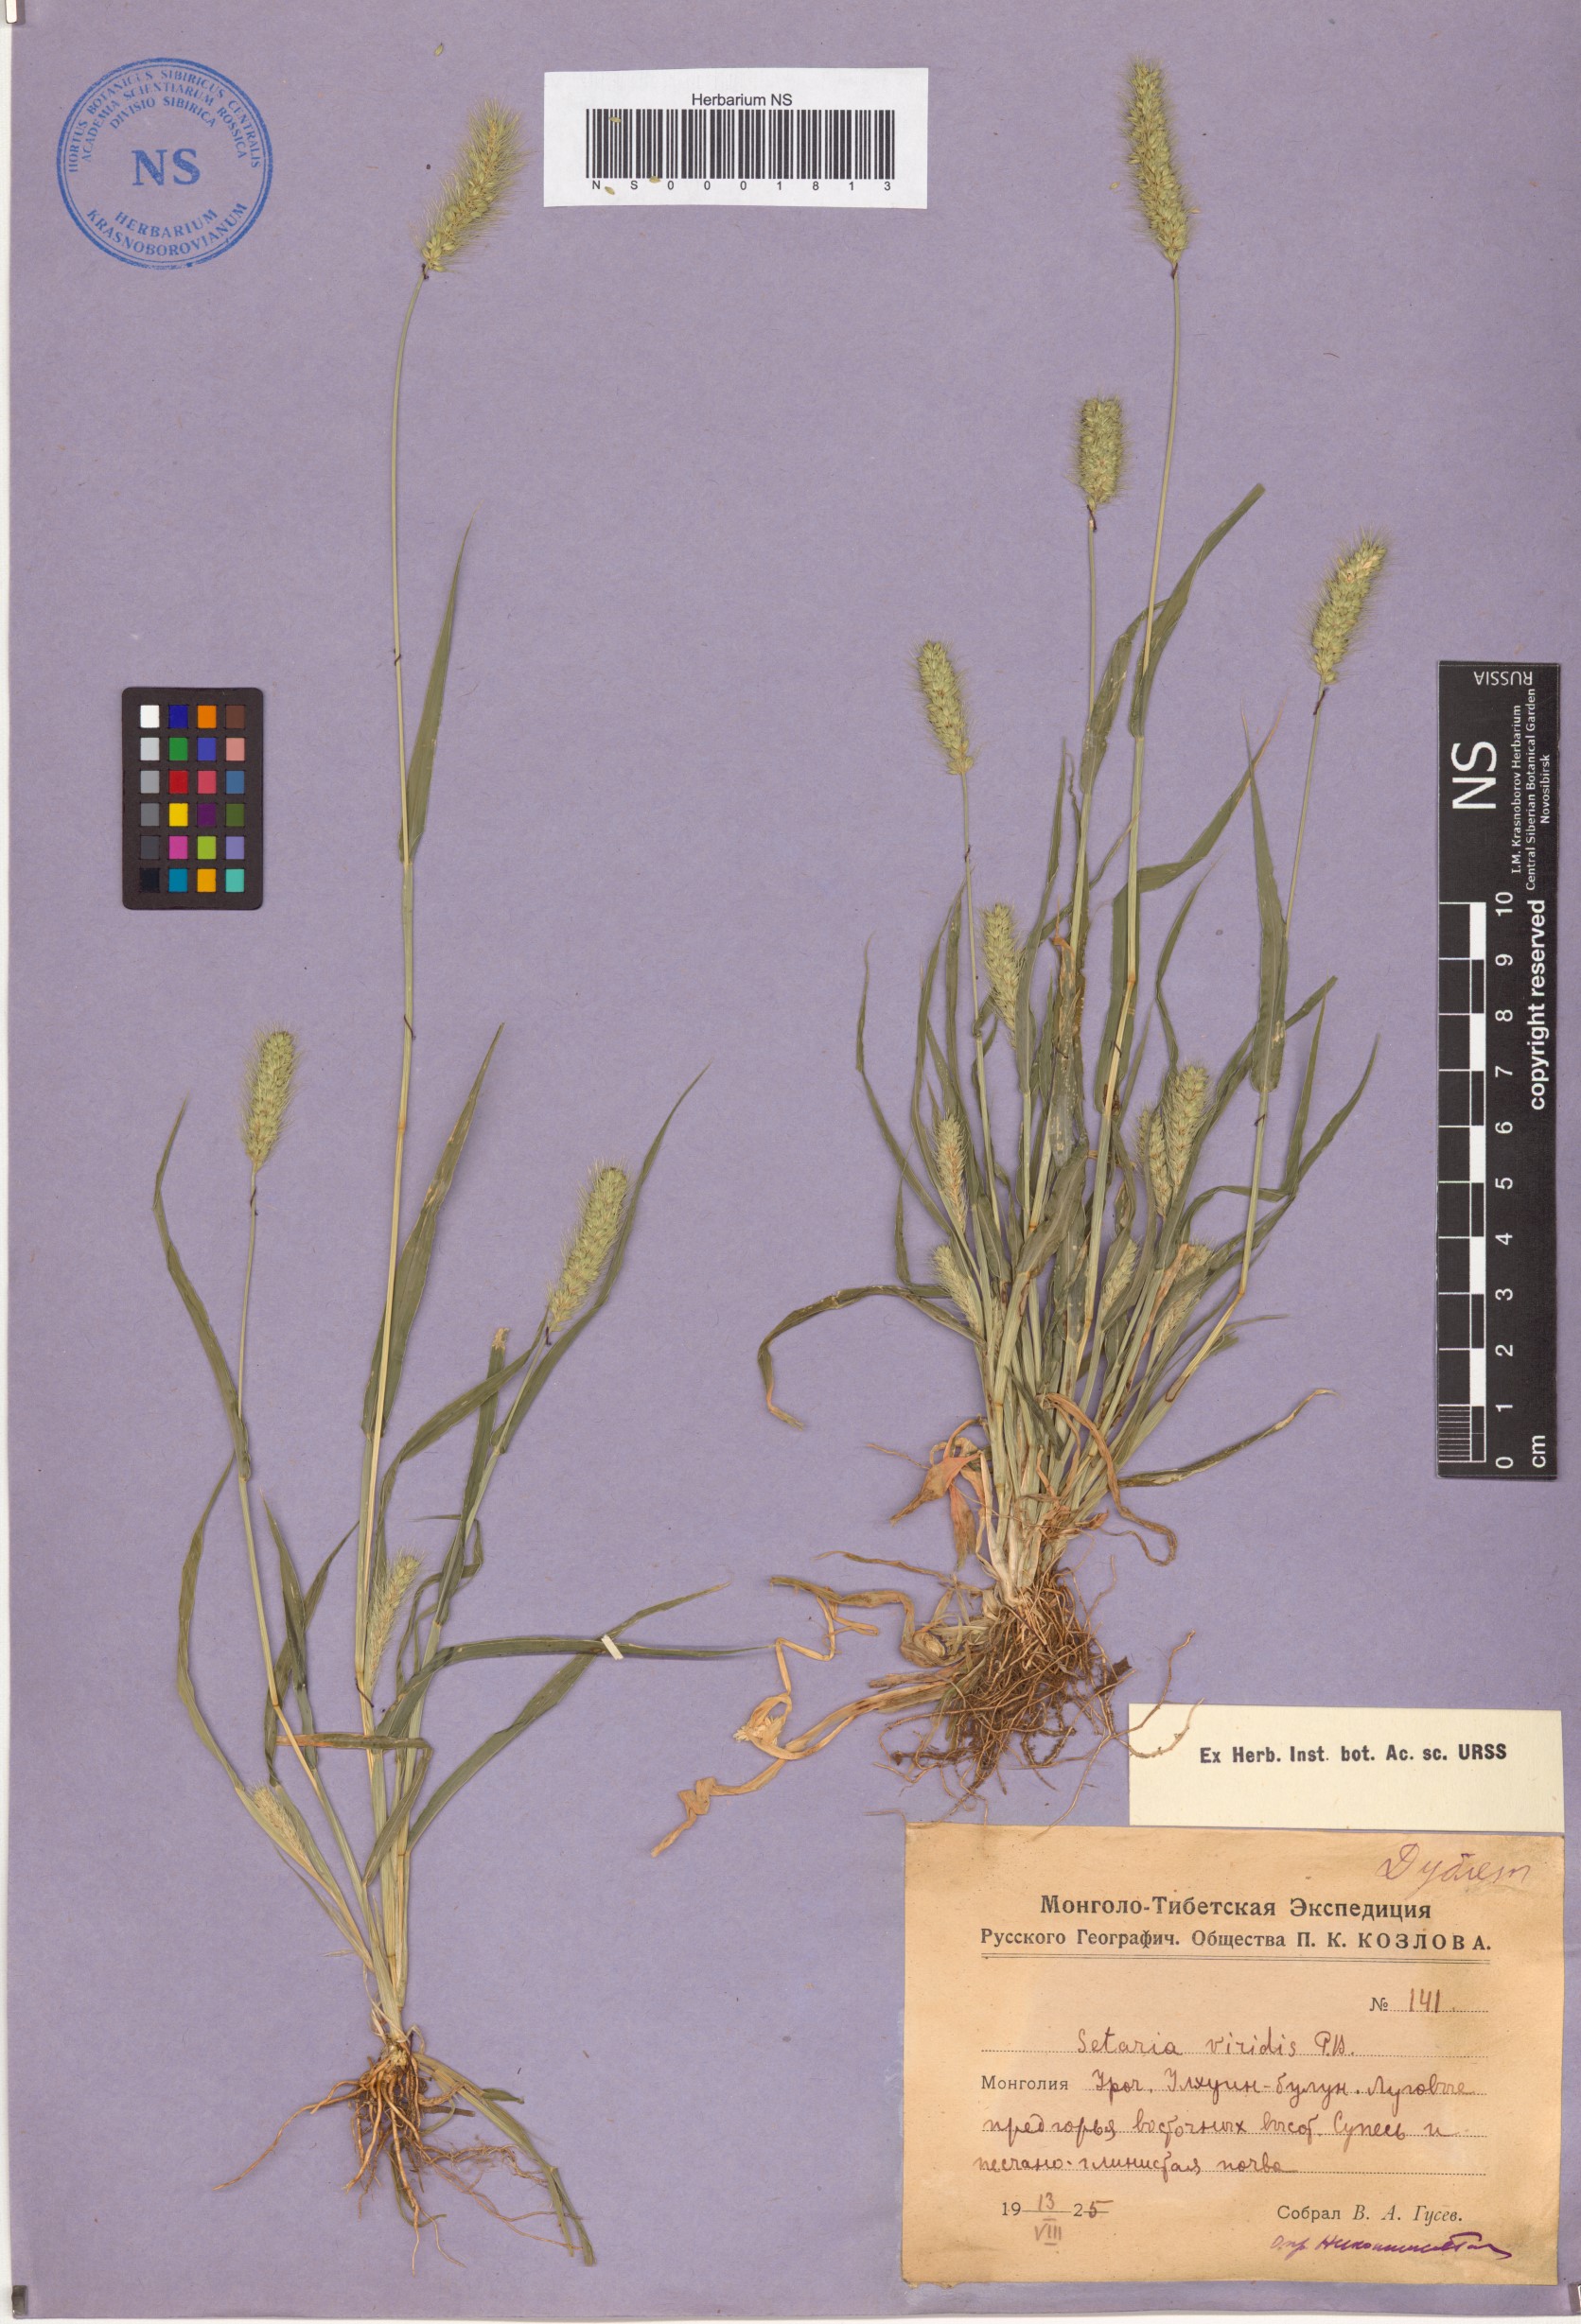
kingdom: Plantae
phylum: Tracheophyta
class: Liliopsida
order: Poales
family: Poaceae
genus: Setaria
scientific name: Setaria viridis
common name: Green bristlegrass
